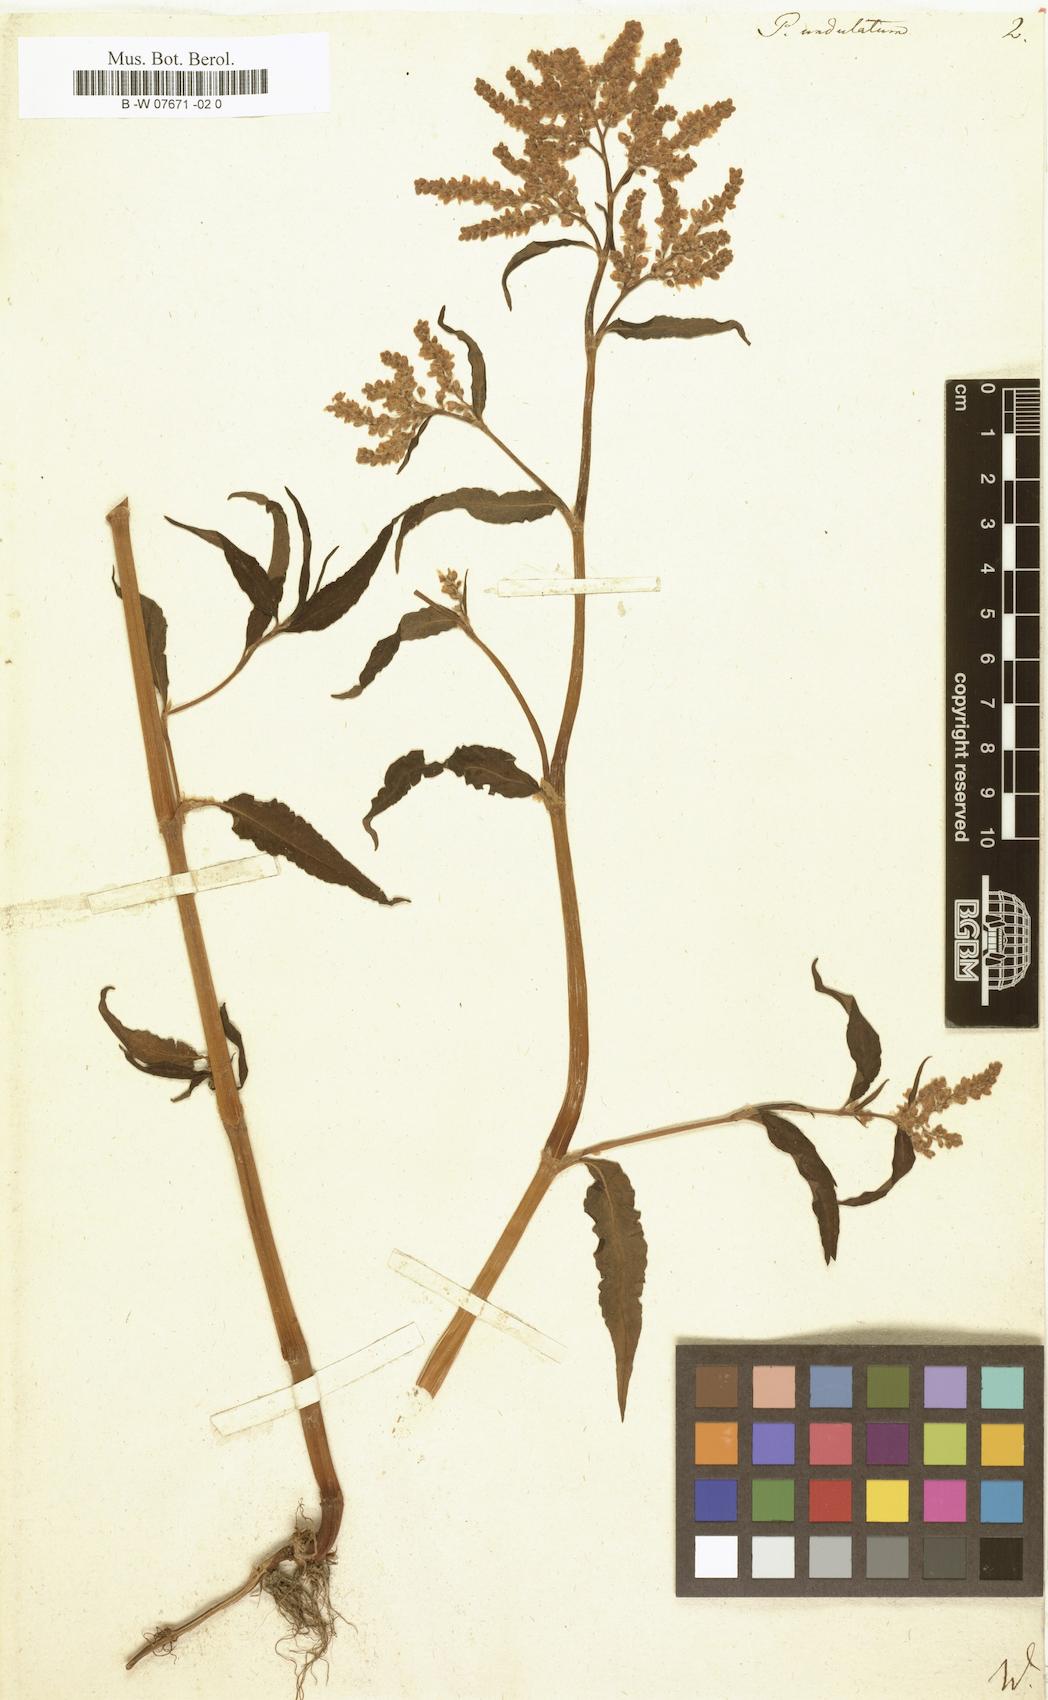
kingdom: Plantae
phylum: Tracheophyta
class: Magnoliopsida
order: Caryophyllales
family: Polygonaceae
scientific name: Polygonaceae
